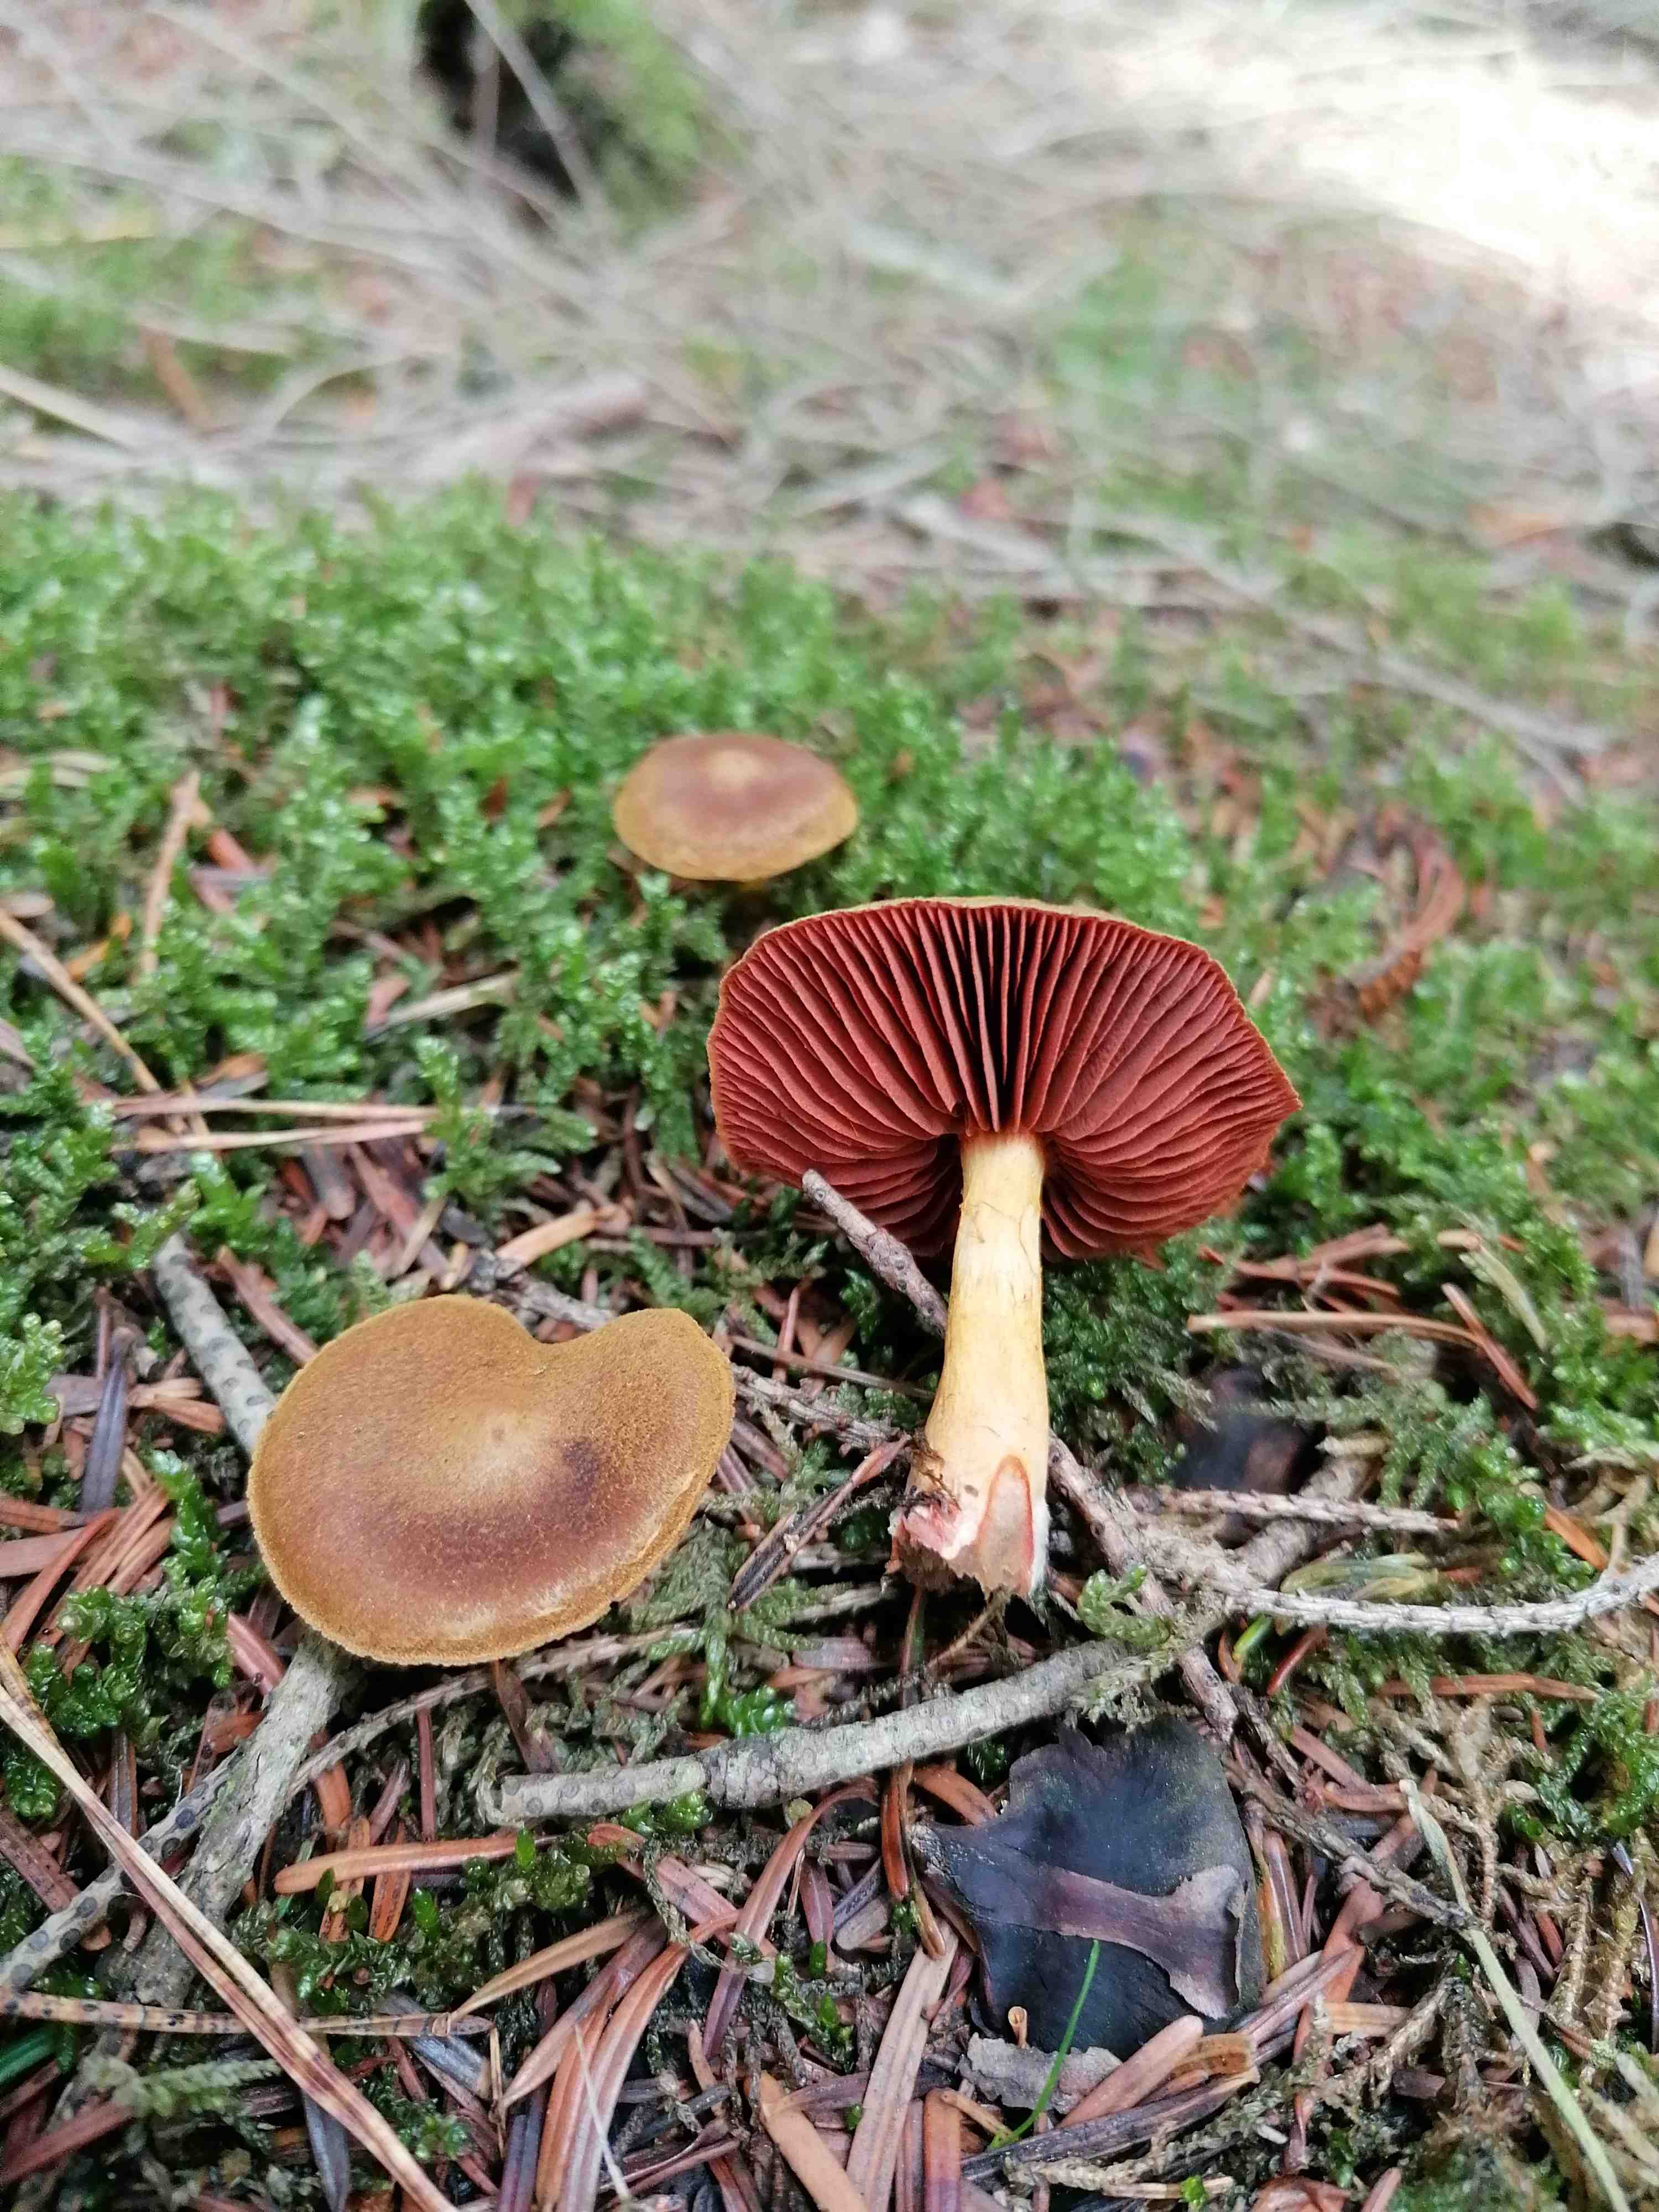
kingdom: Fungi
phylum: Basidiomycota
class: Agaricomycetes
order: Agaricales
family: Cortinariaceae
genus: Cortinarius
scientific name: Cortinarius
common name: cinnoberbladet slørhat
